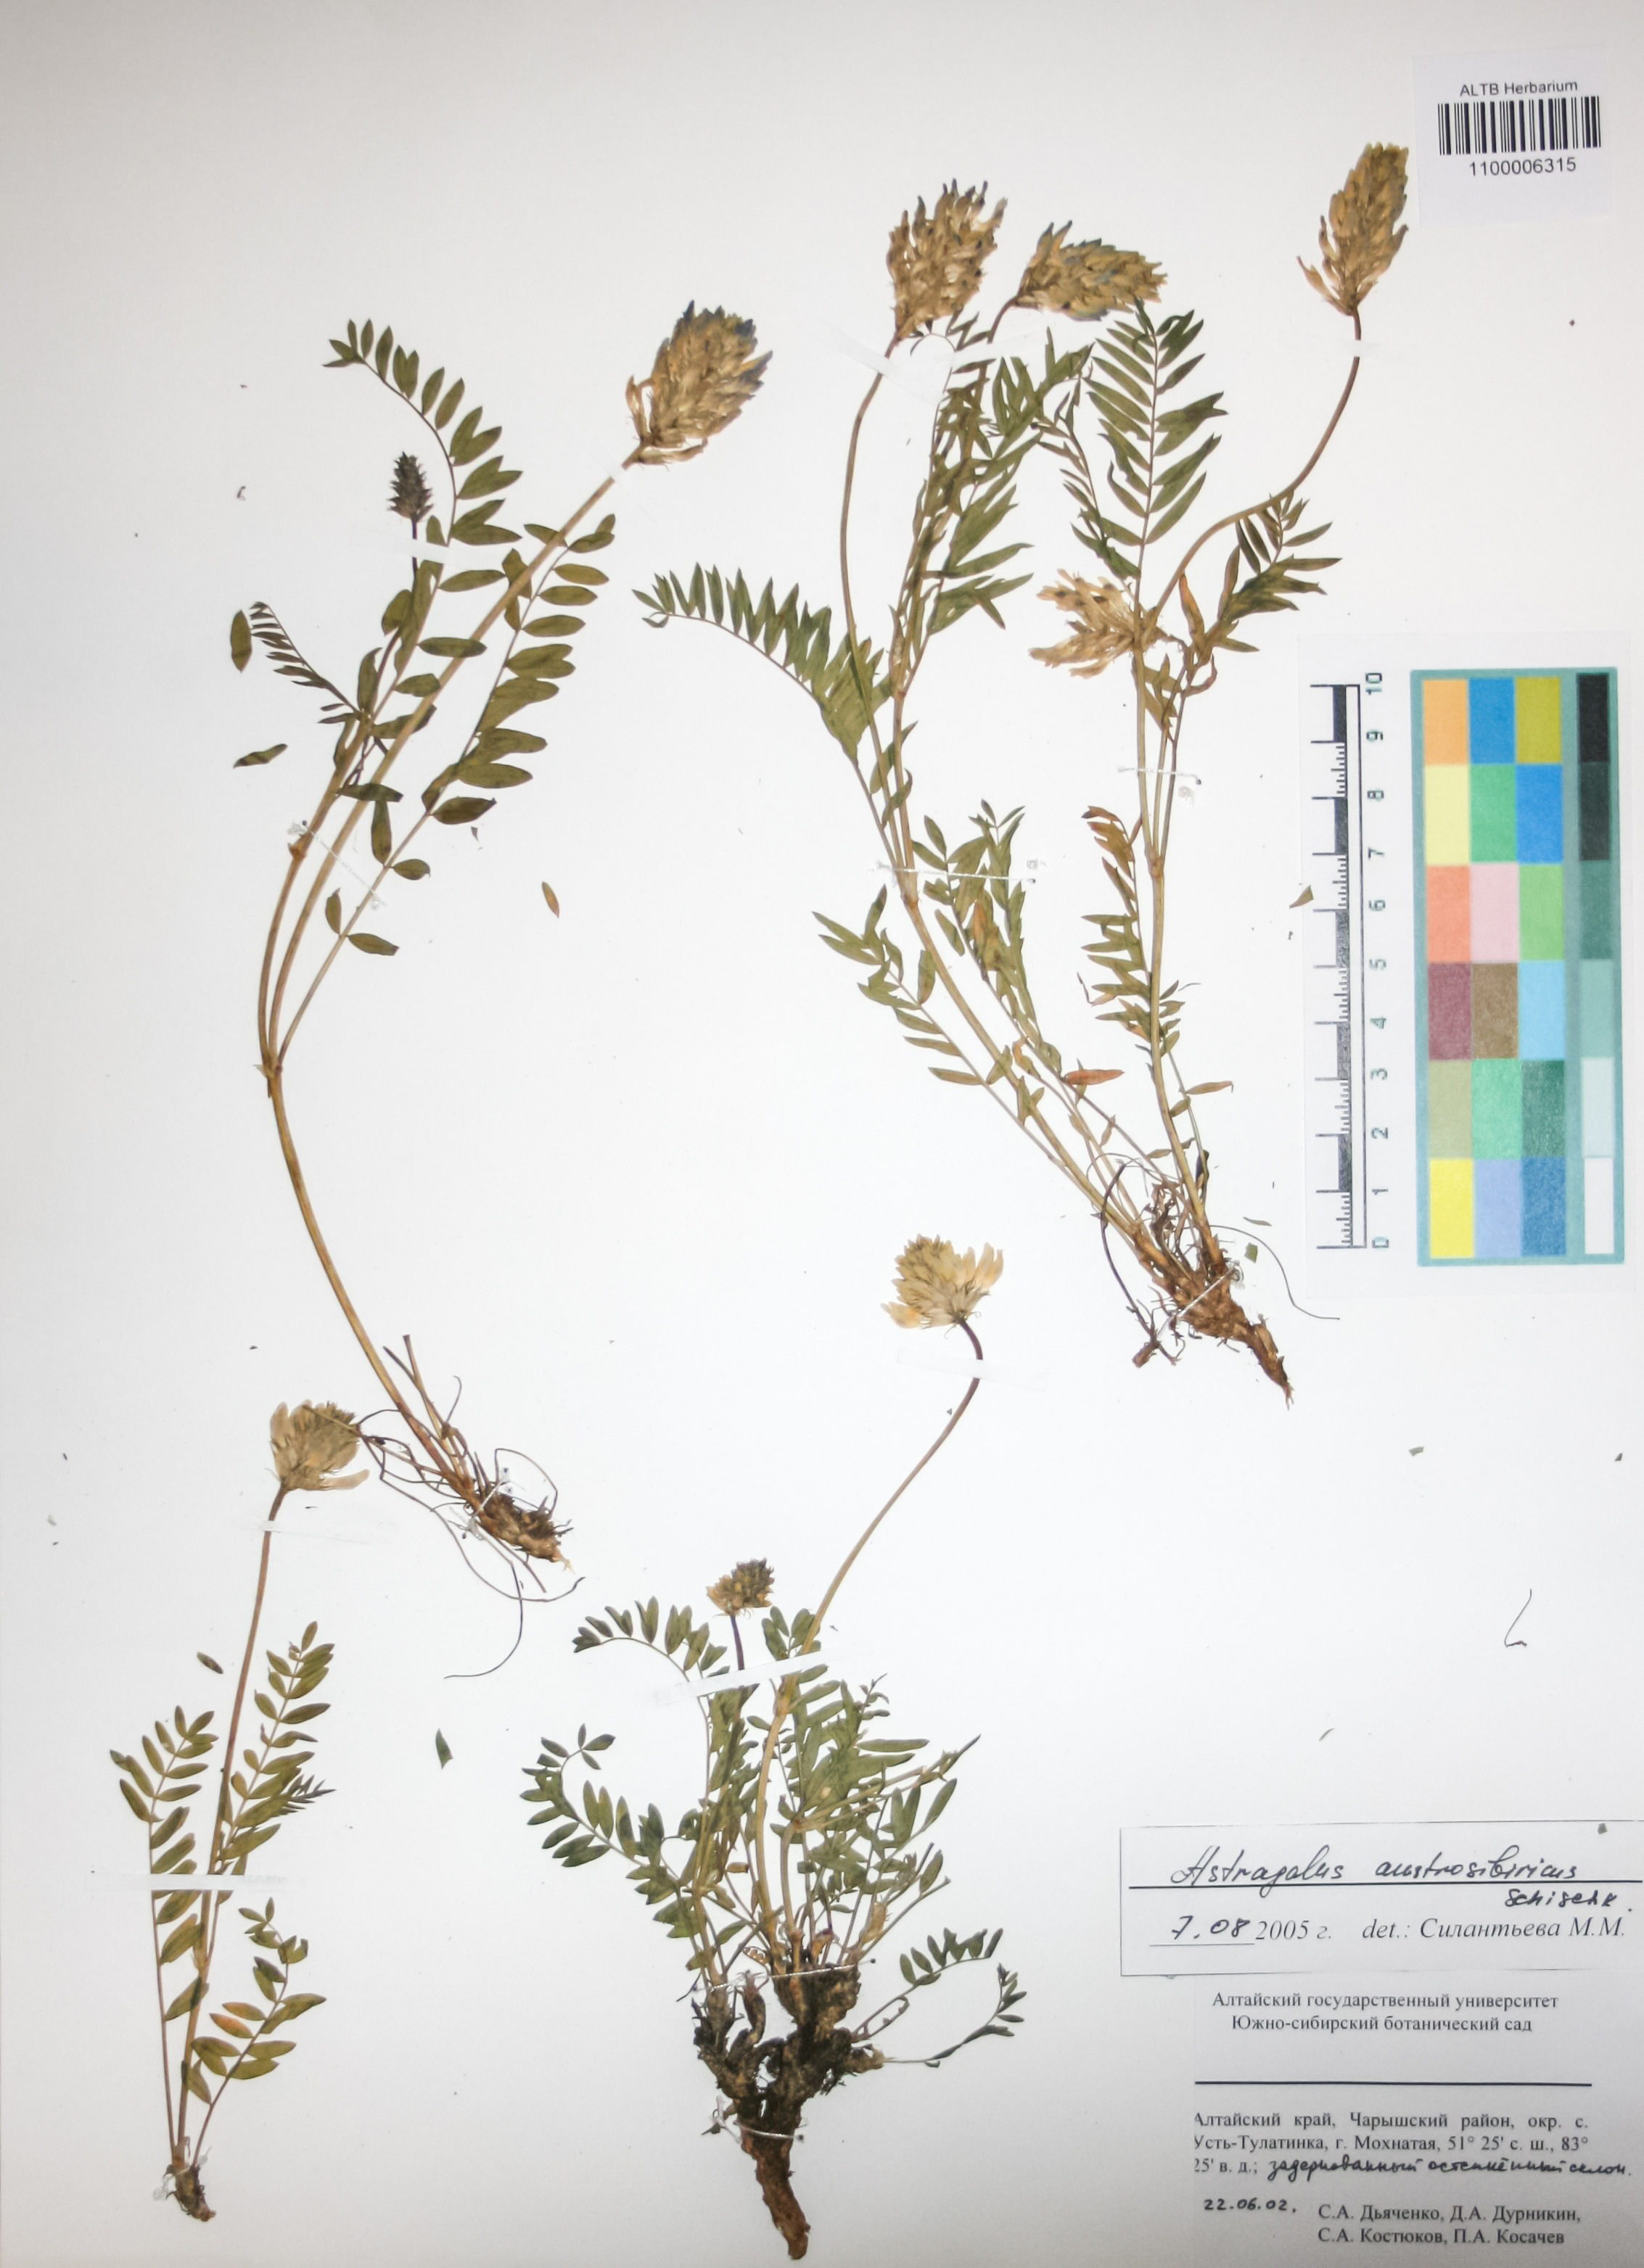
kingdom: Plantae
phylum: Tracheophyta
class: Magnoliopsida
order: Fabales
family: Fabaceae
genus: Astragalus
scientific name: Astragalus laxmannii
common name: Laxmann's milk-vetch
